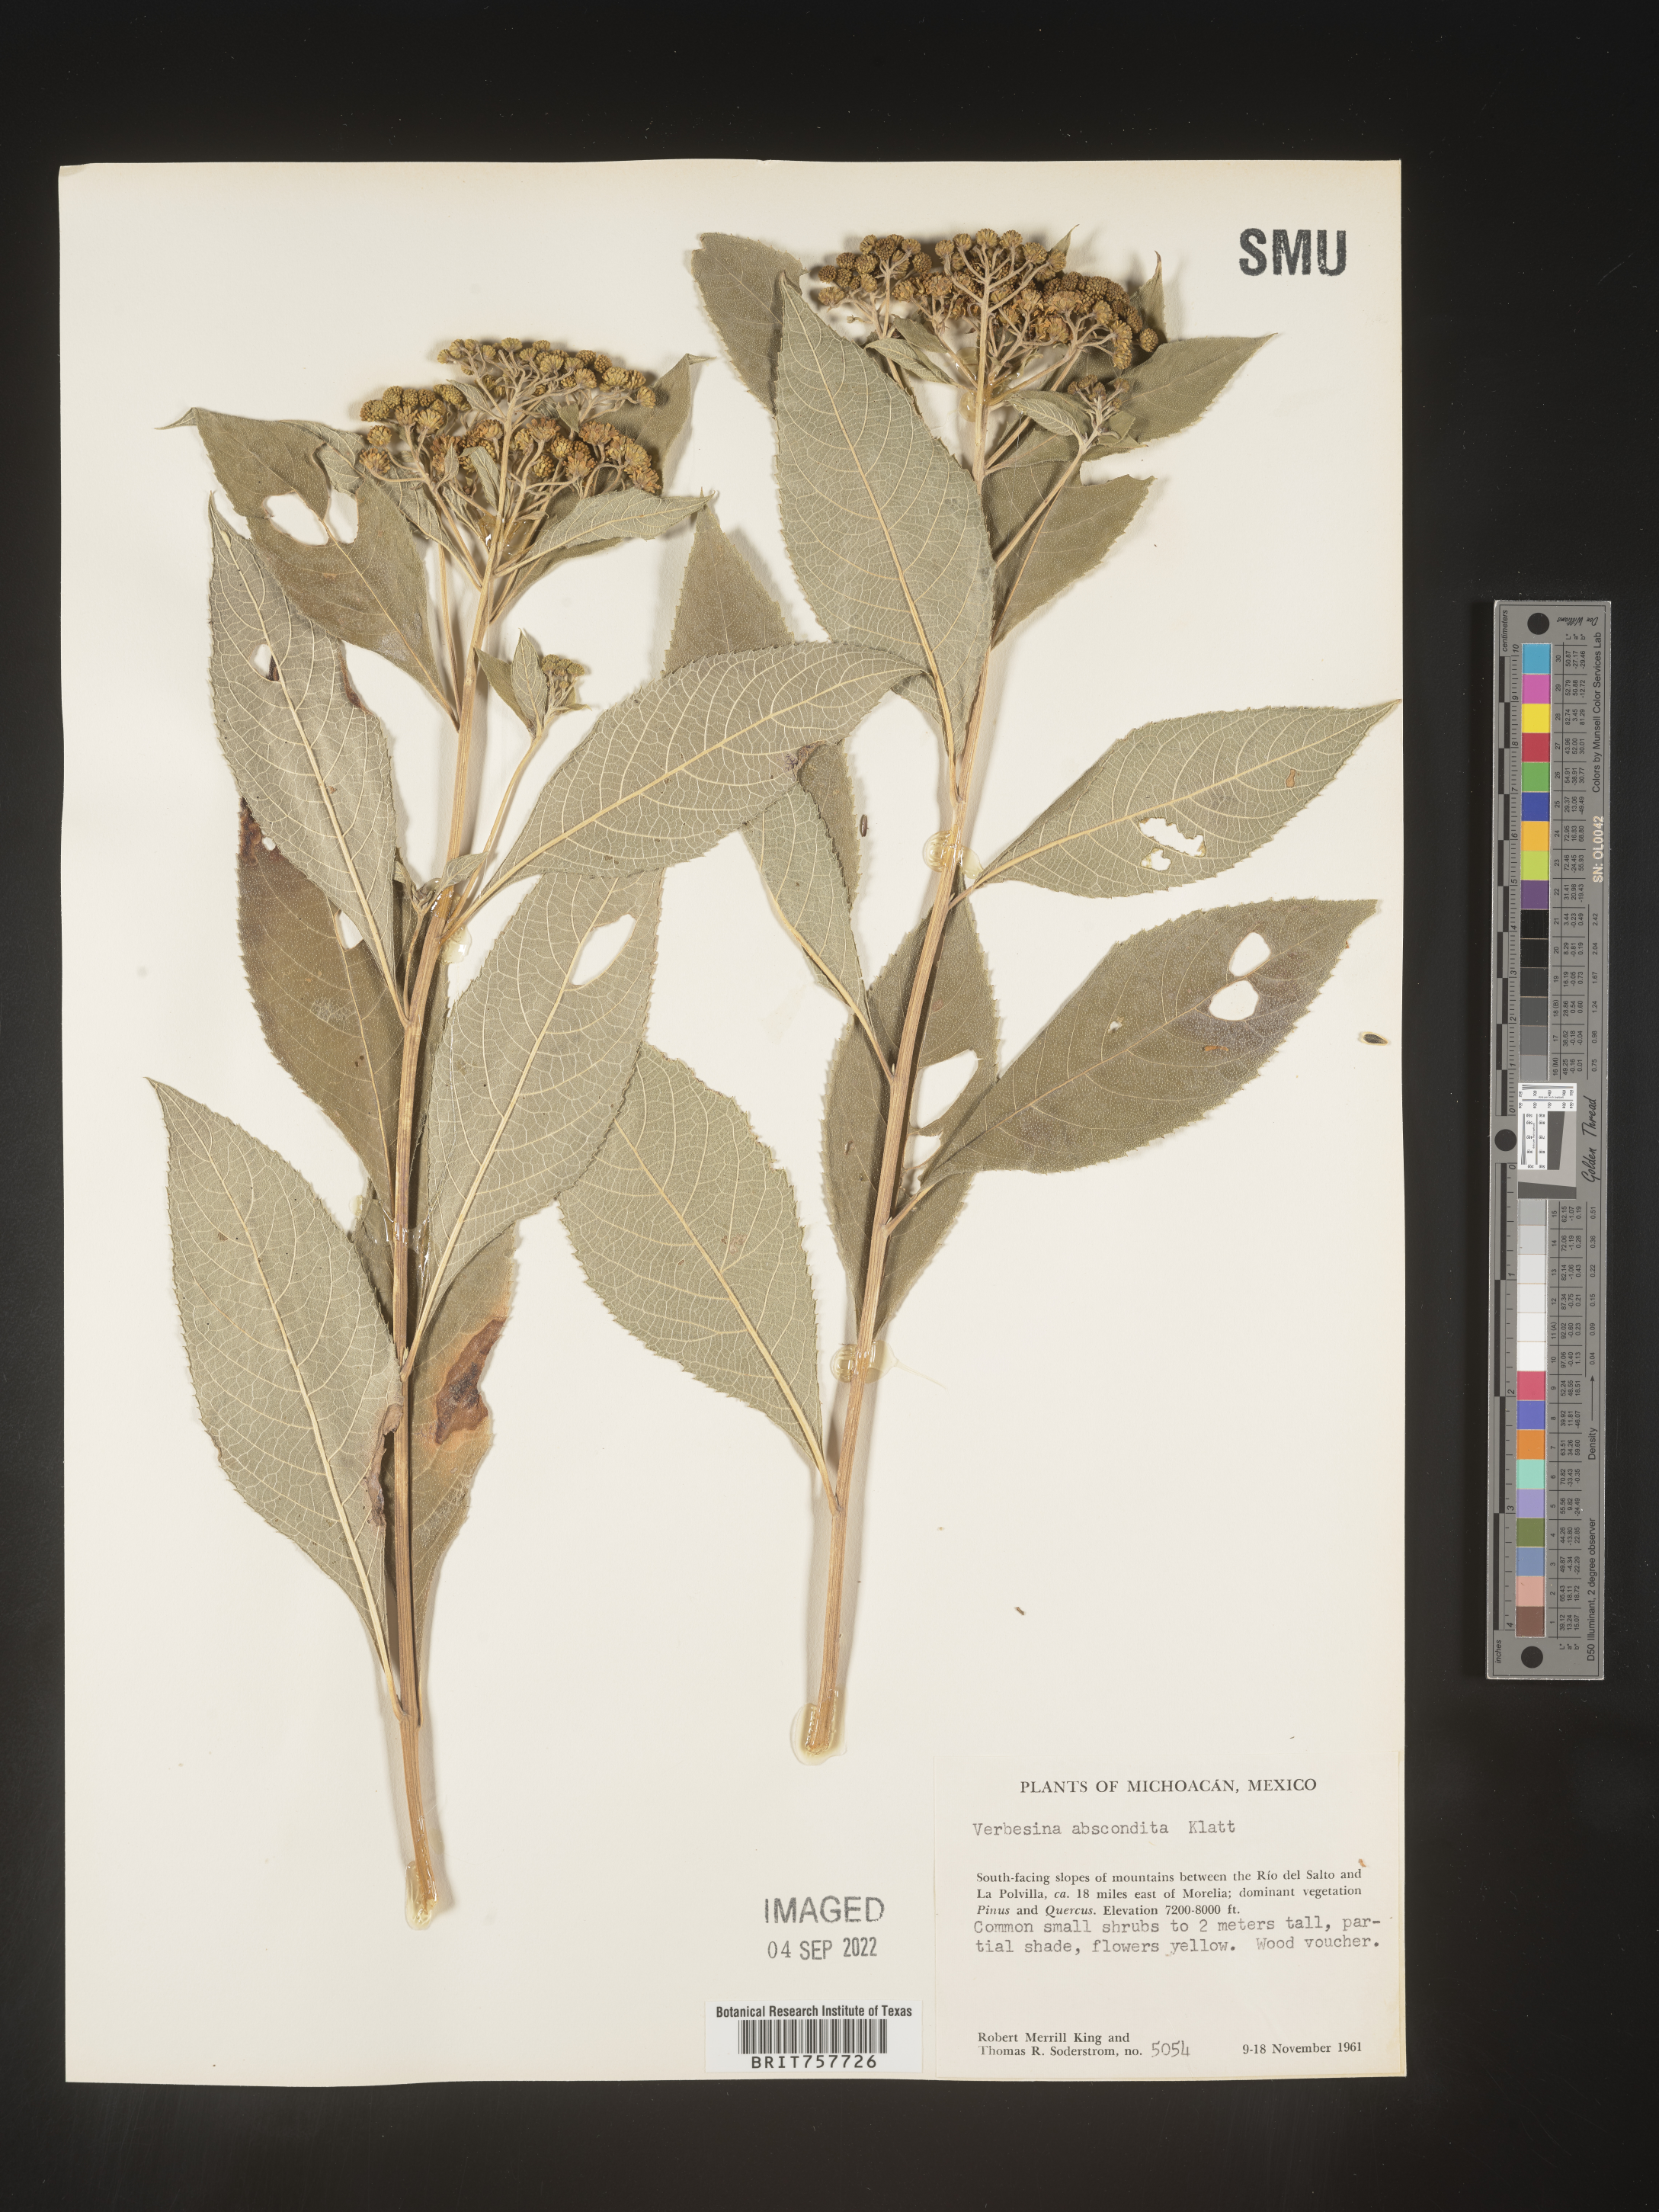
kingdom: Plantae
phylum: Tracheophyta
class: Magnoliopsida
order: Asterales
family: Asteraceae
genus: Verbesina
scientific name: Verbesina
